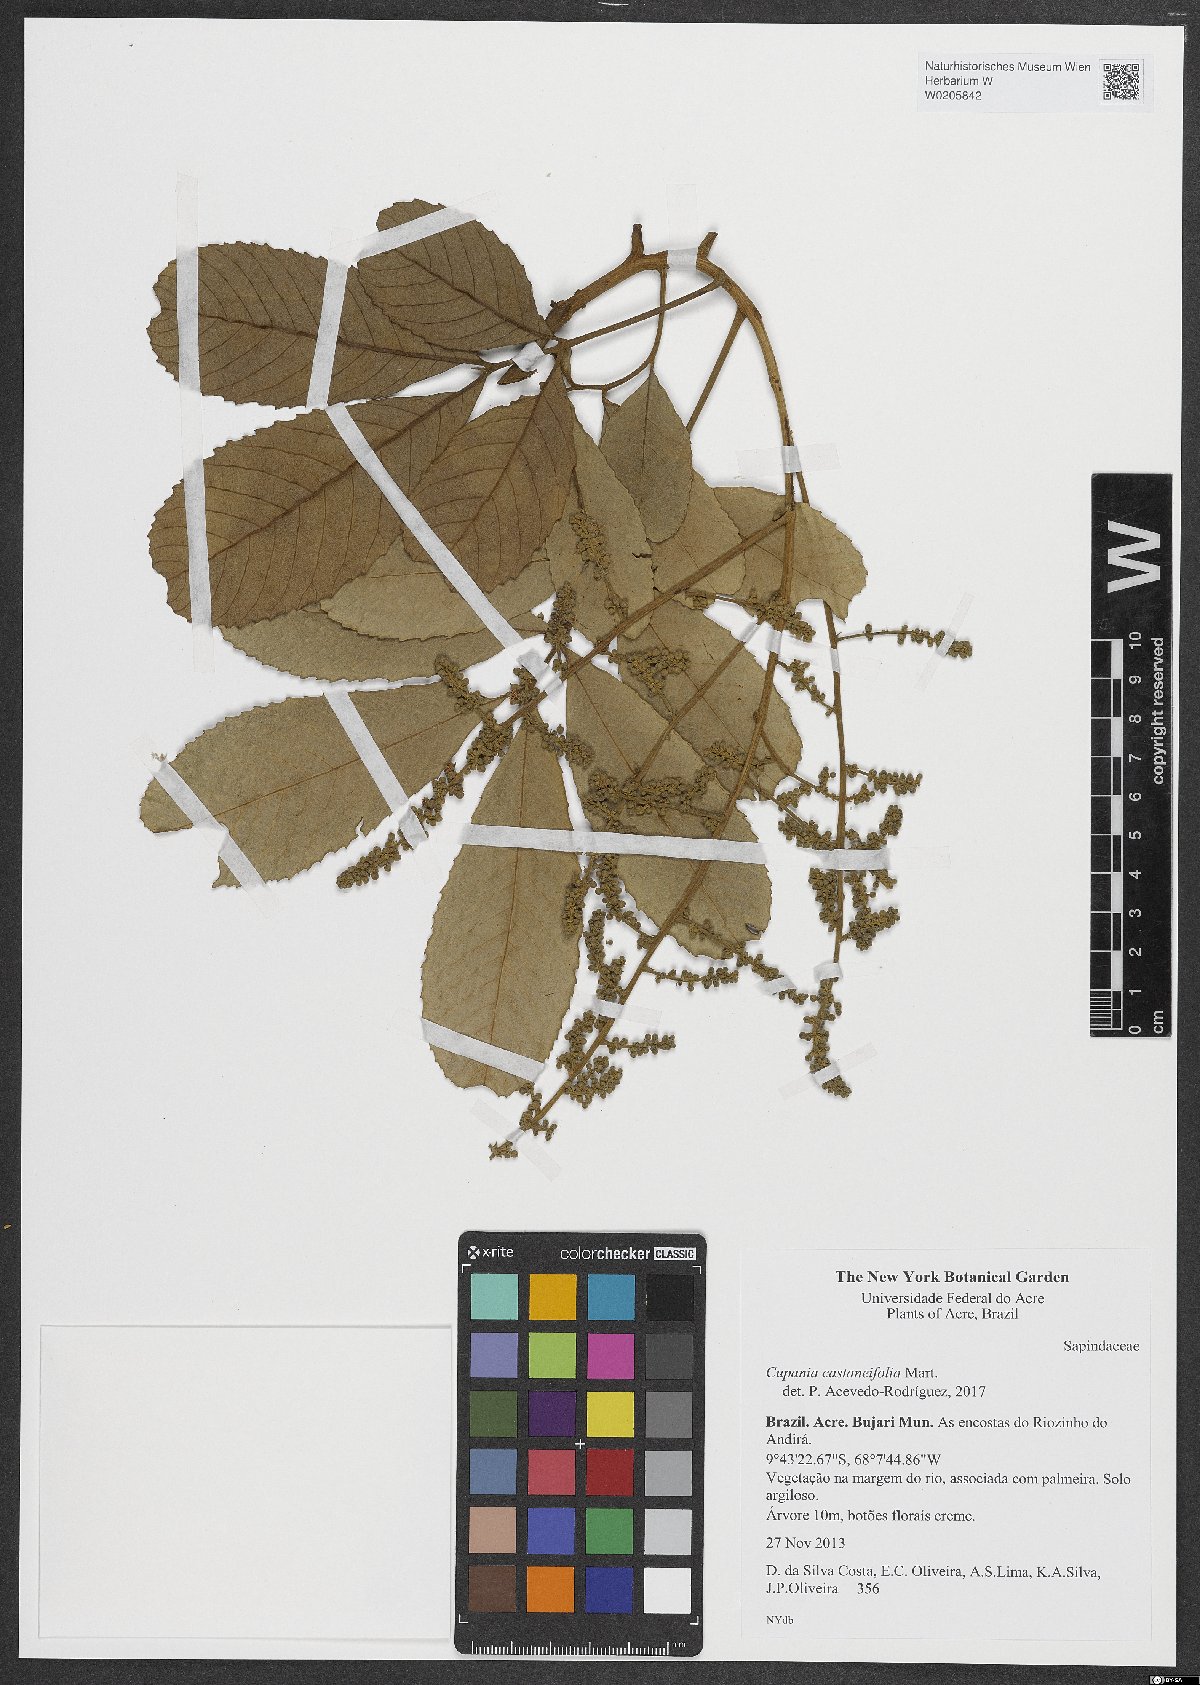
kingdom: Plantae
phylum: Tracheophyta
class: Magnoliopsida
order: Sapindales
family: Sapindaceae
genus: Cupania
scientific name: Cupania castaneifolia
